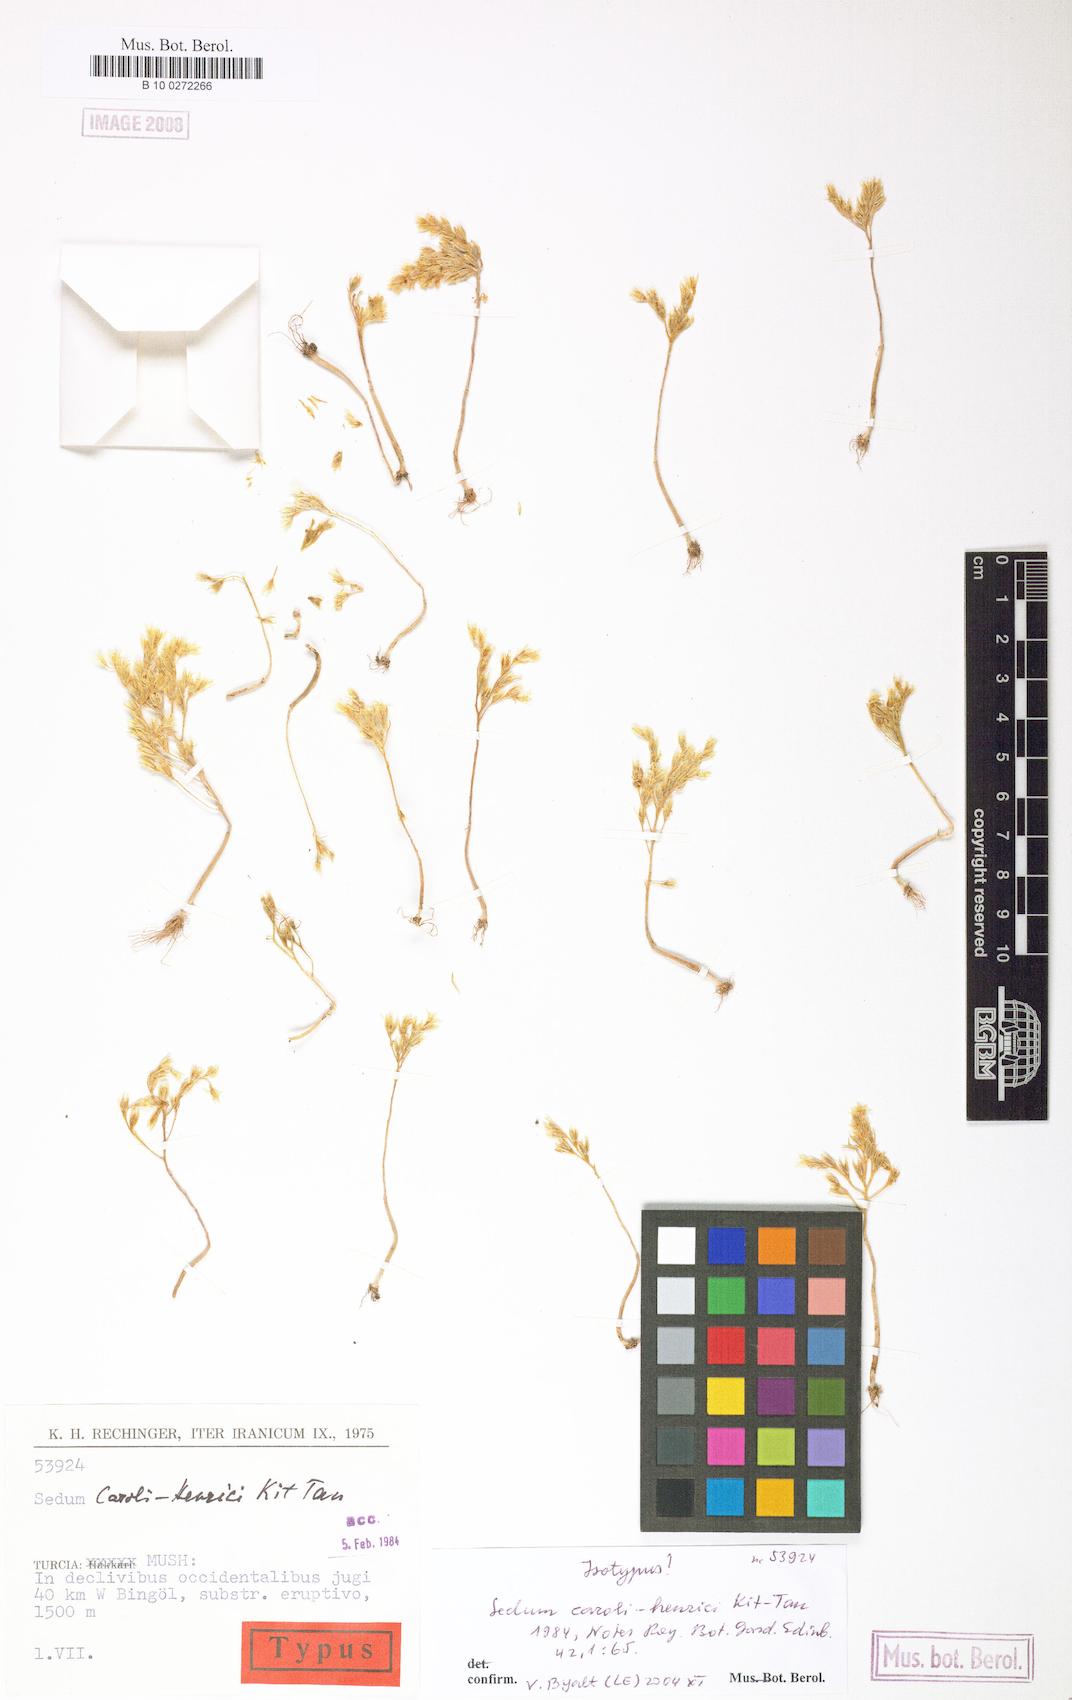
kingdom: Plantae
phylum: Tracheophyta
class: Magnoliopsida
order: Saxifragales
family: Crassulaceae
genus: Sedum
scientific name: Sedum caroli-henrici
